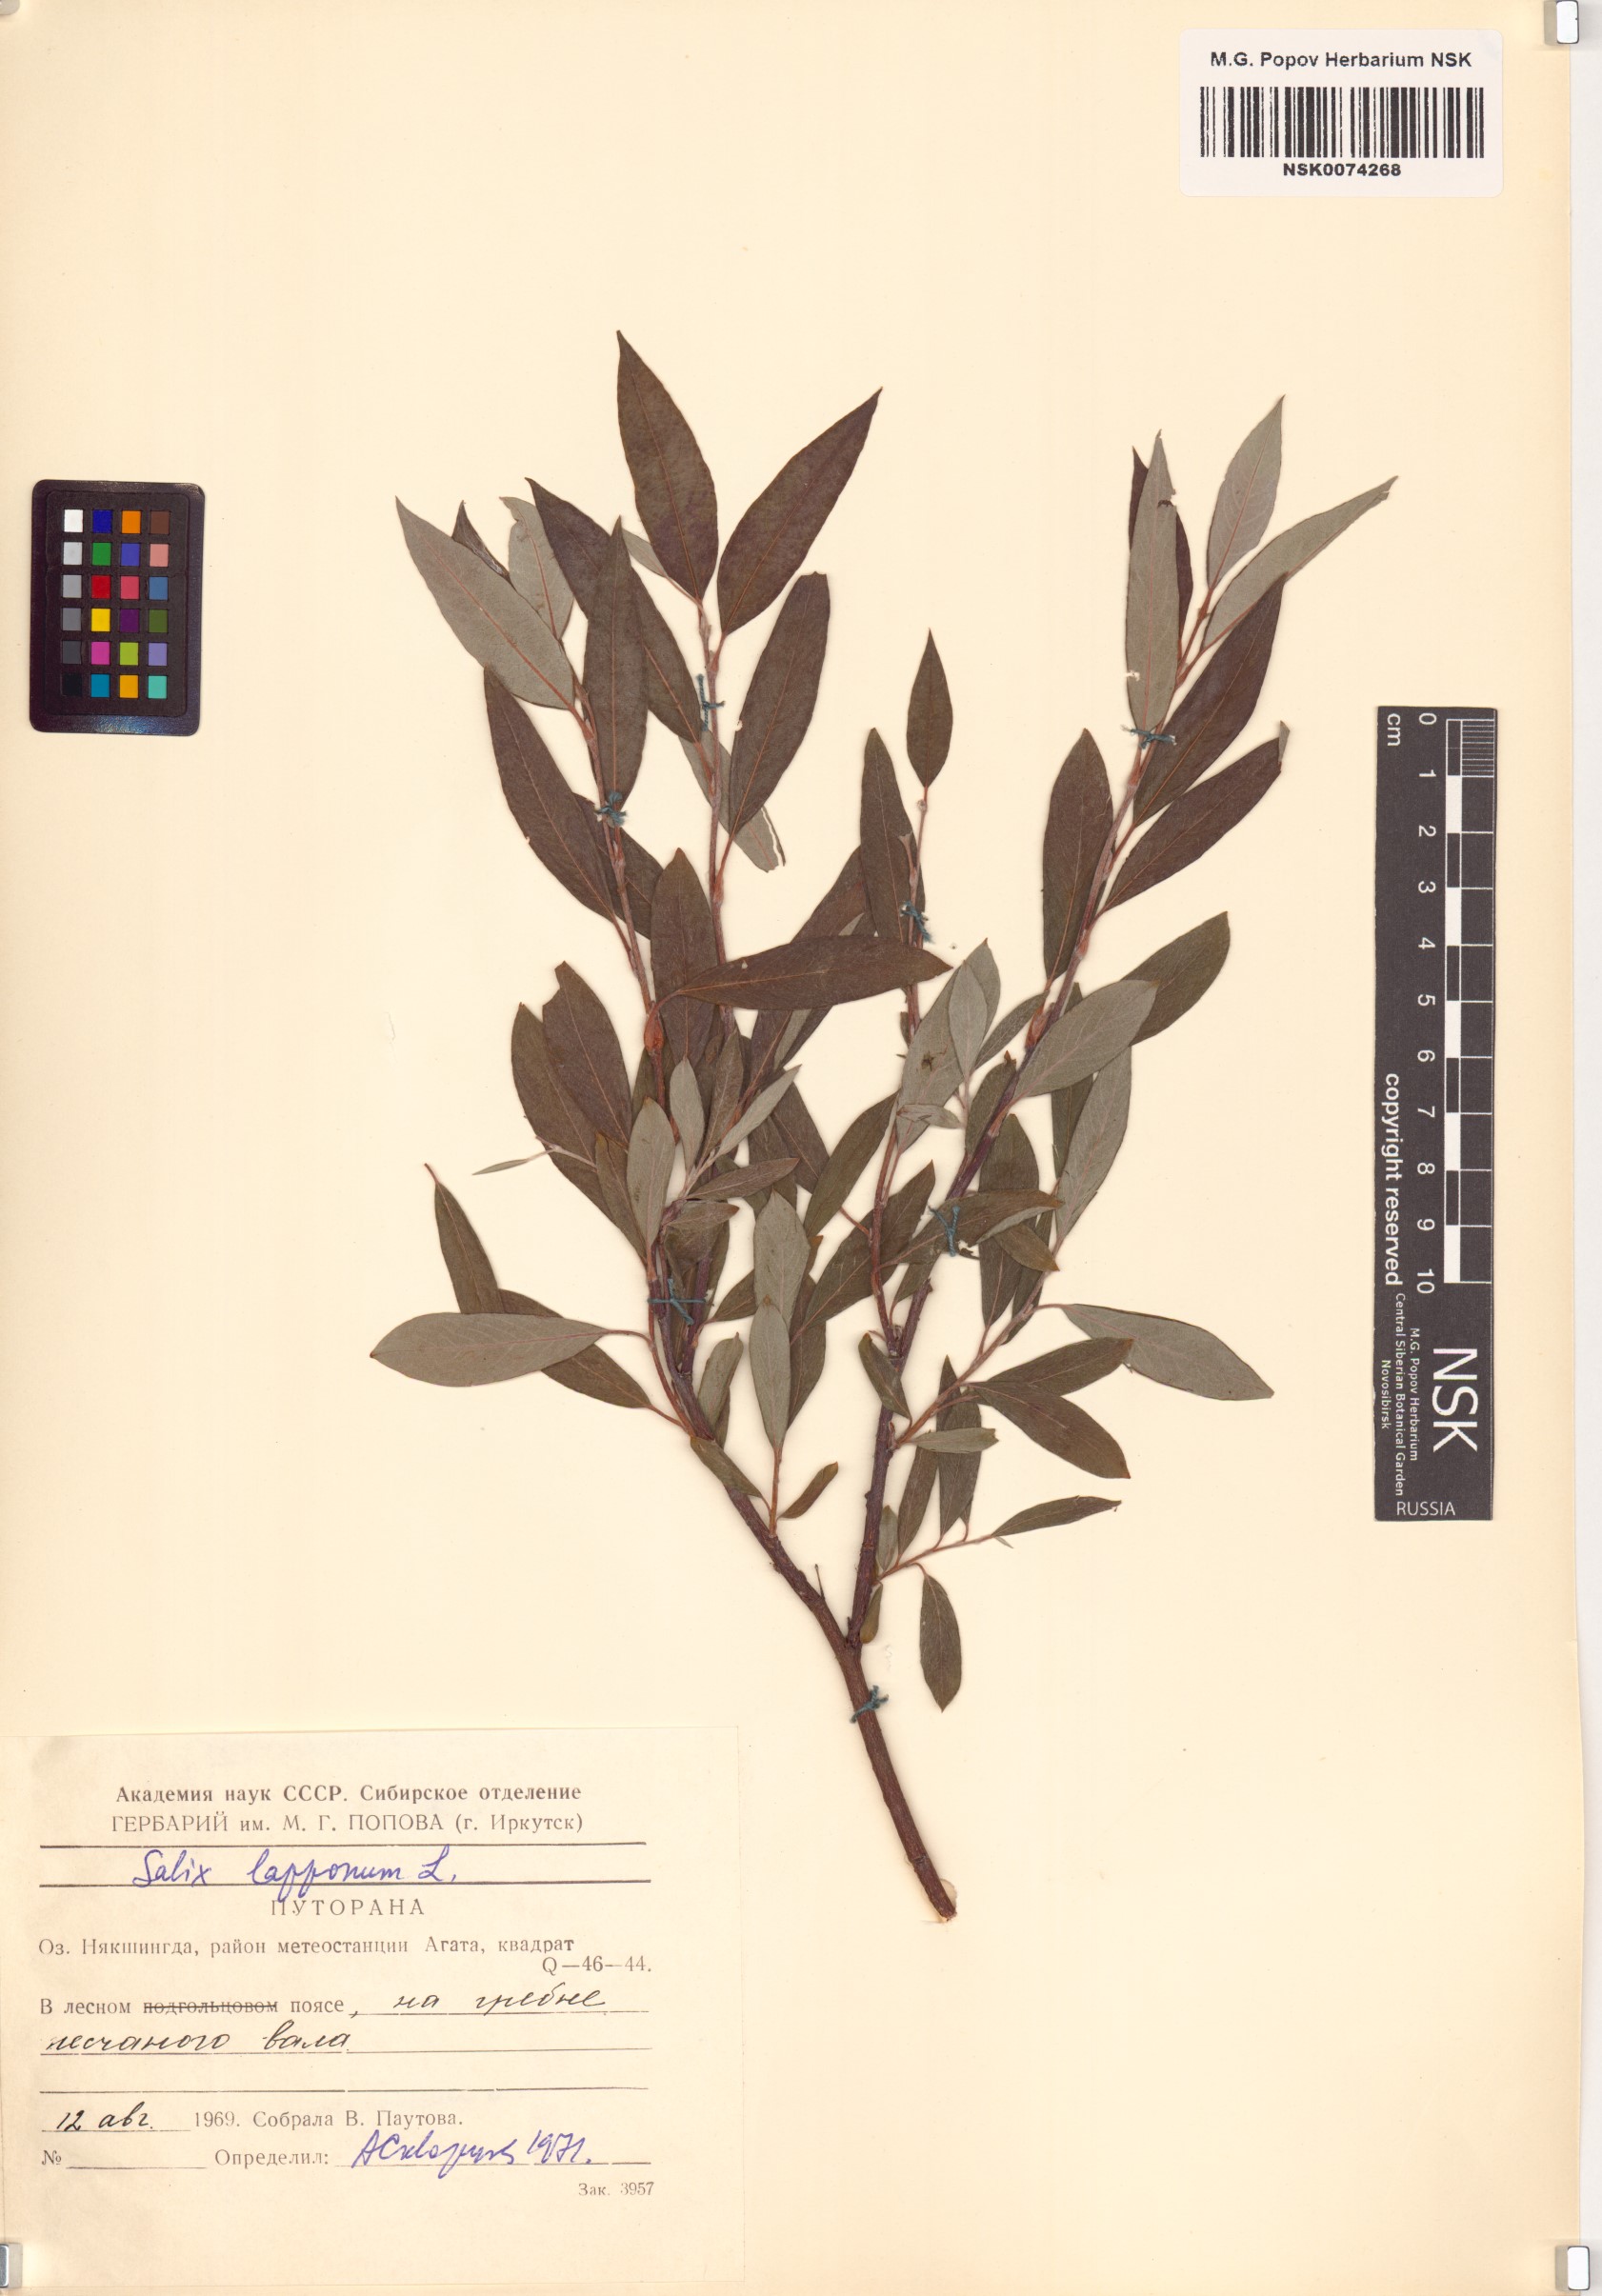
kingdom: Plantae
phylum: Tracheophyta
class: Magnoliopsida
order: Malpighiales
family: Salicaceae
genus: Salix
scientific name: Salix lapponum
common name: Downy willow
